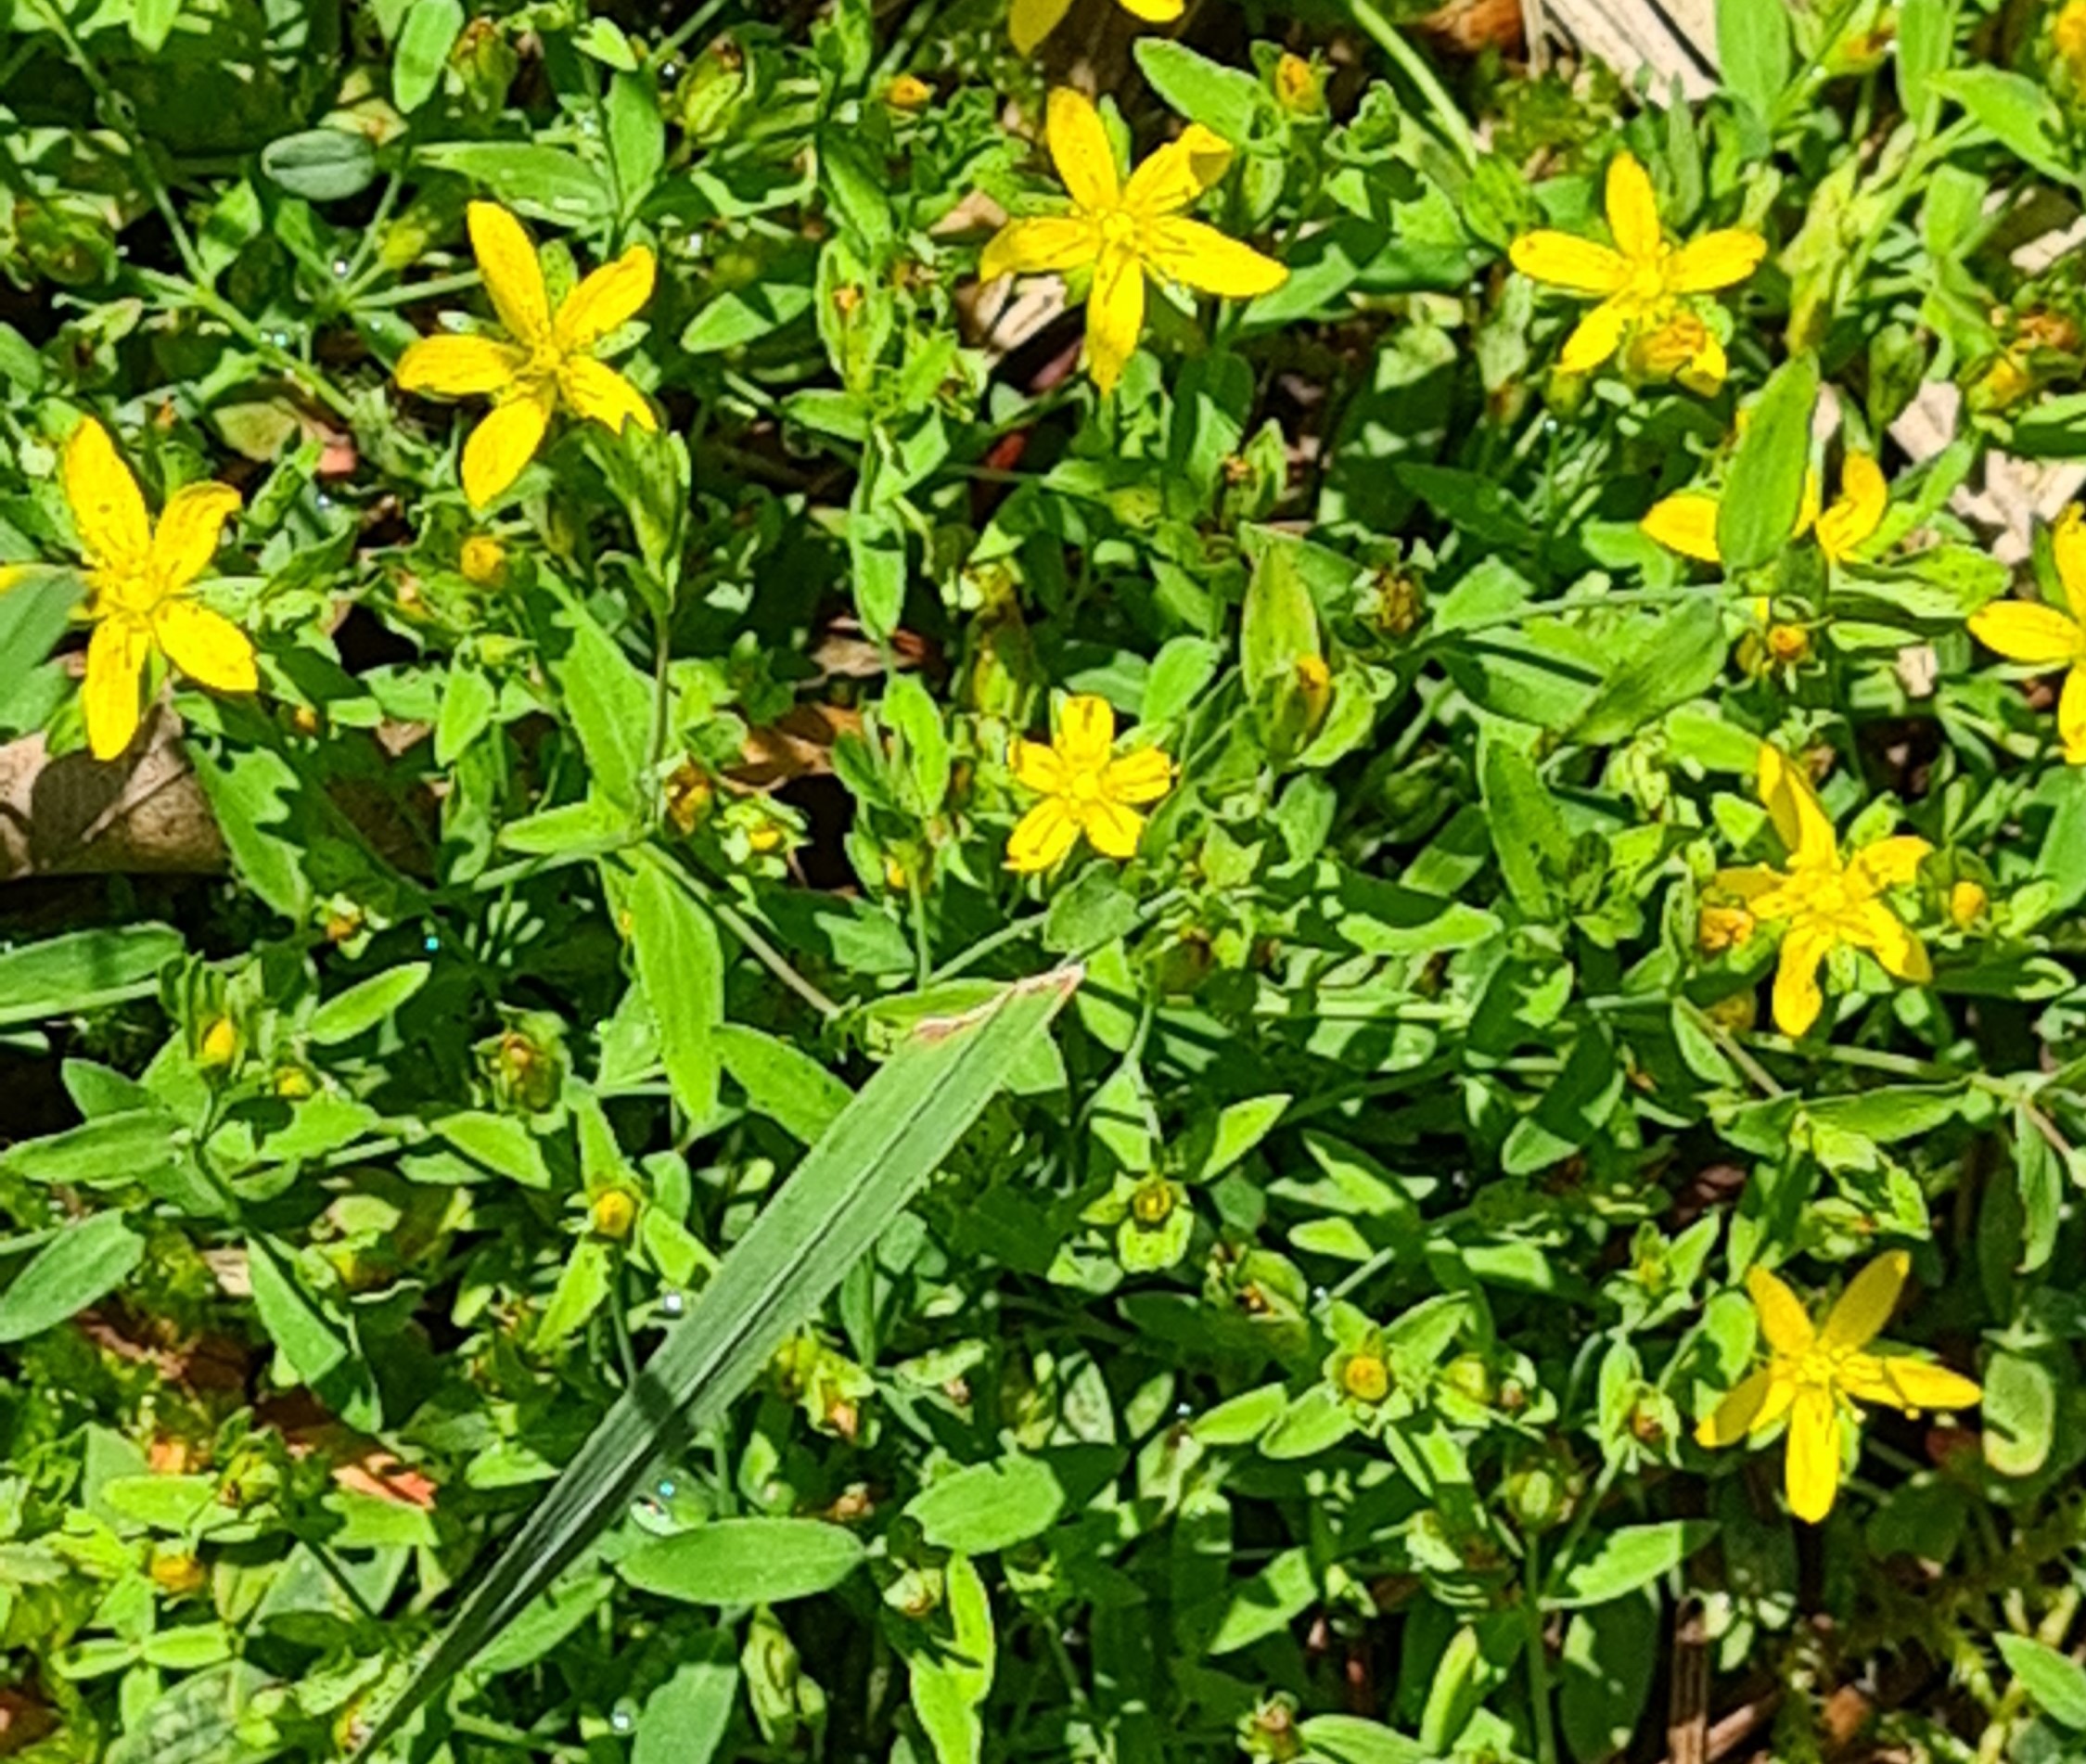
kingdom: Plantae
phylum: Tracheophyta
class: Magnoliopsida
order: Malpighiales
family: Hypericaceae
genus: Hypericum
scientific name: Hypericum humifusum
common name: Dværg-perikon
